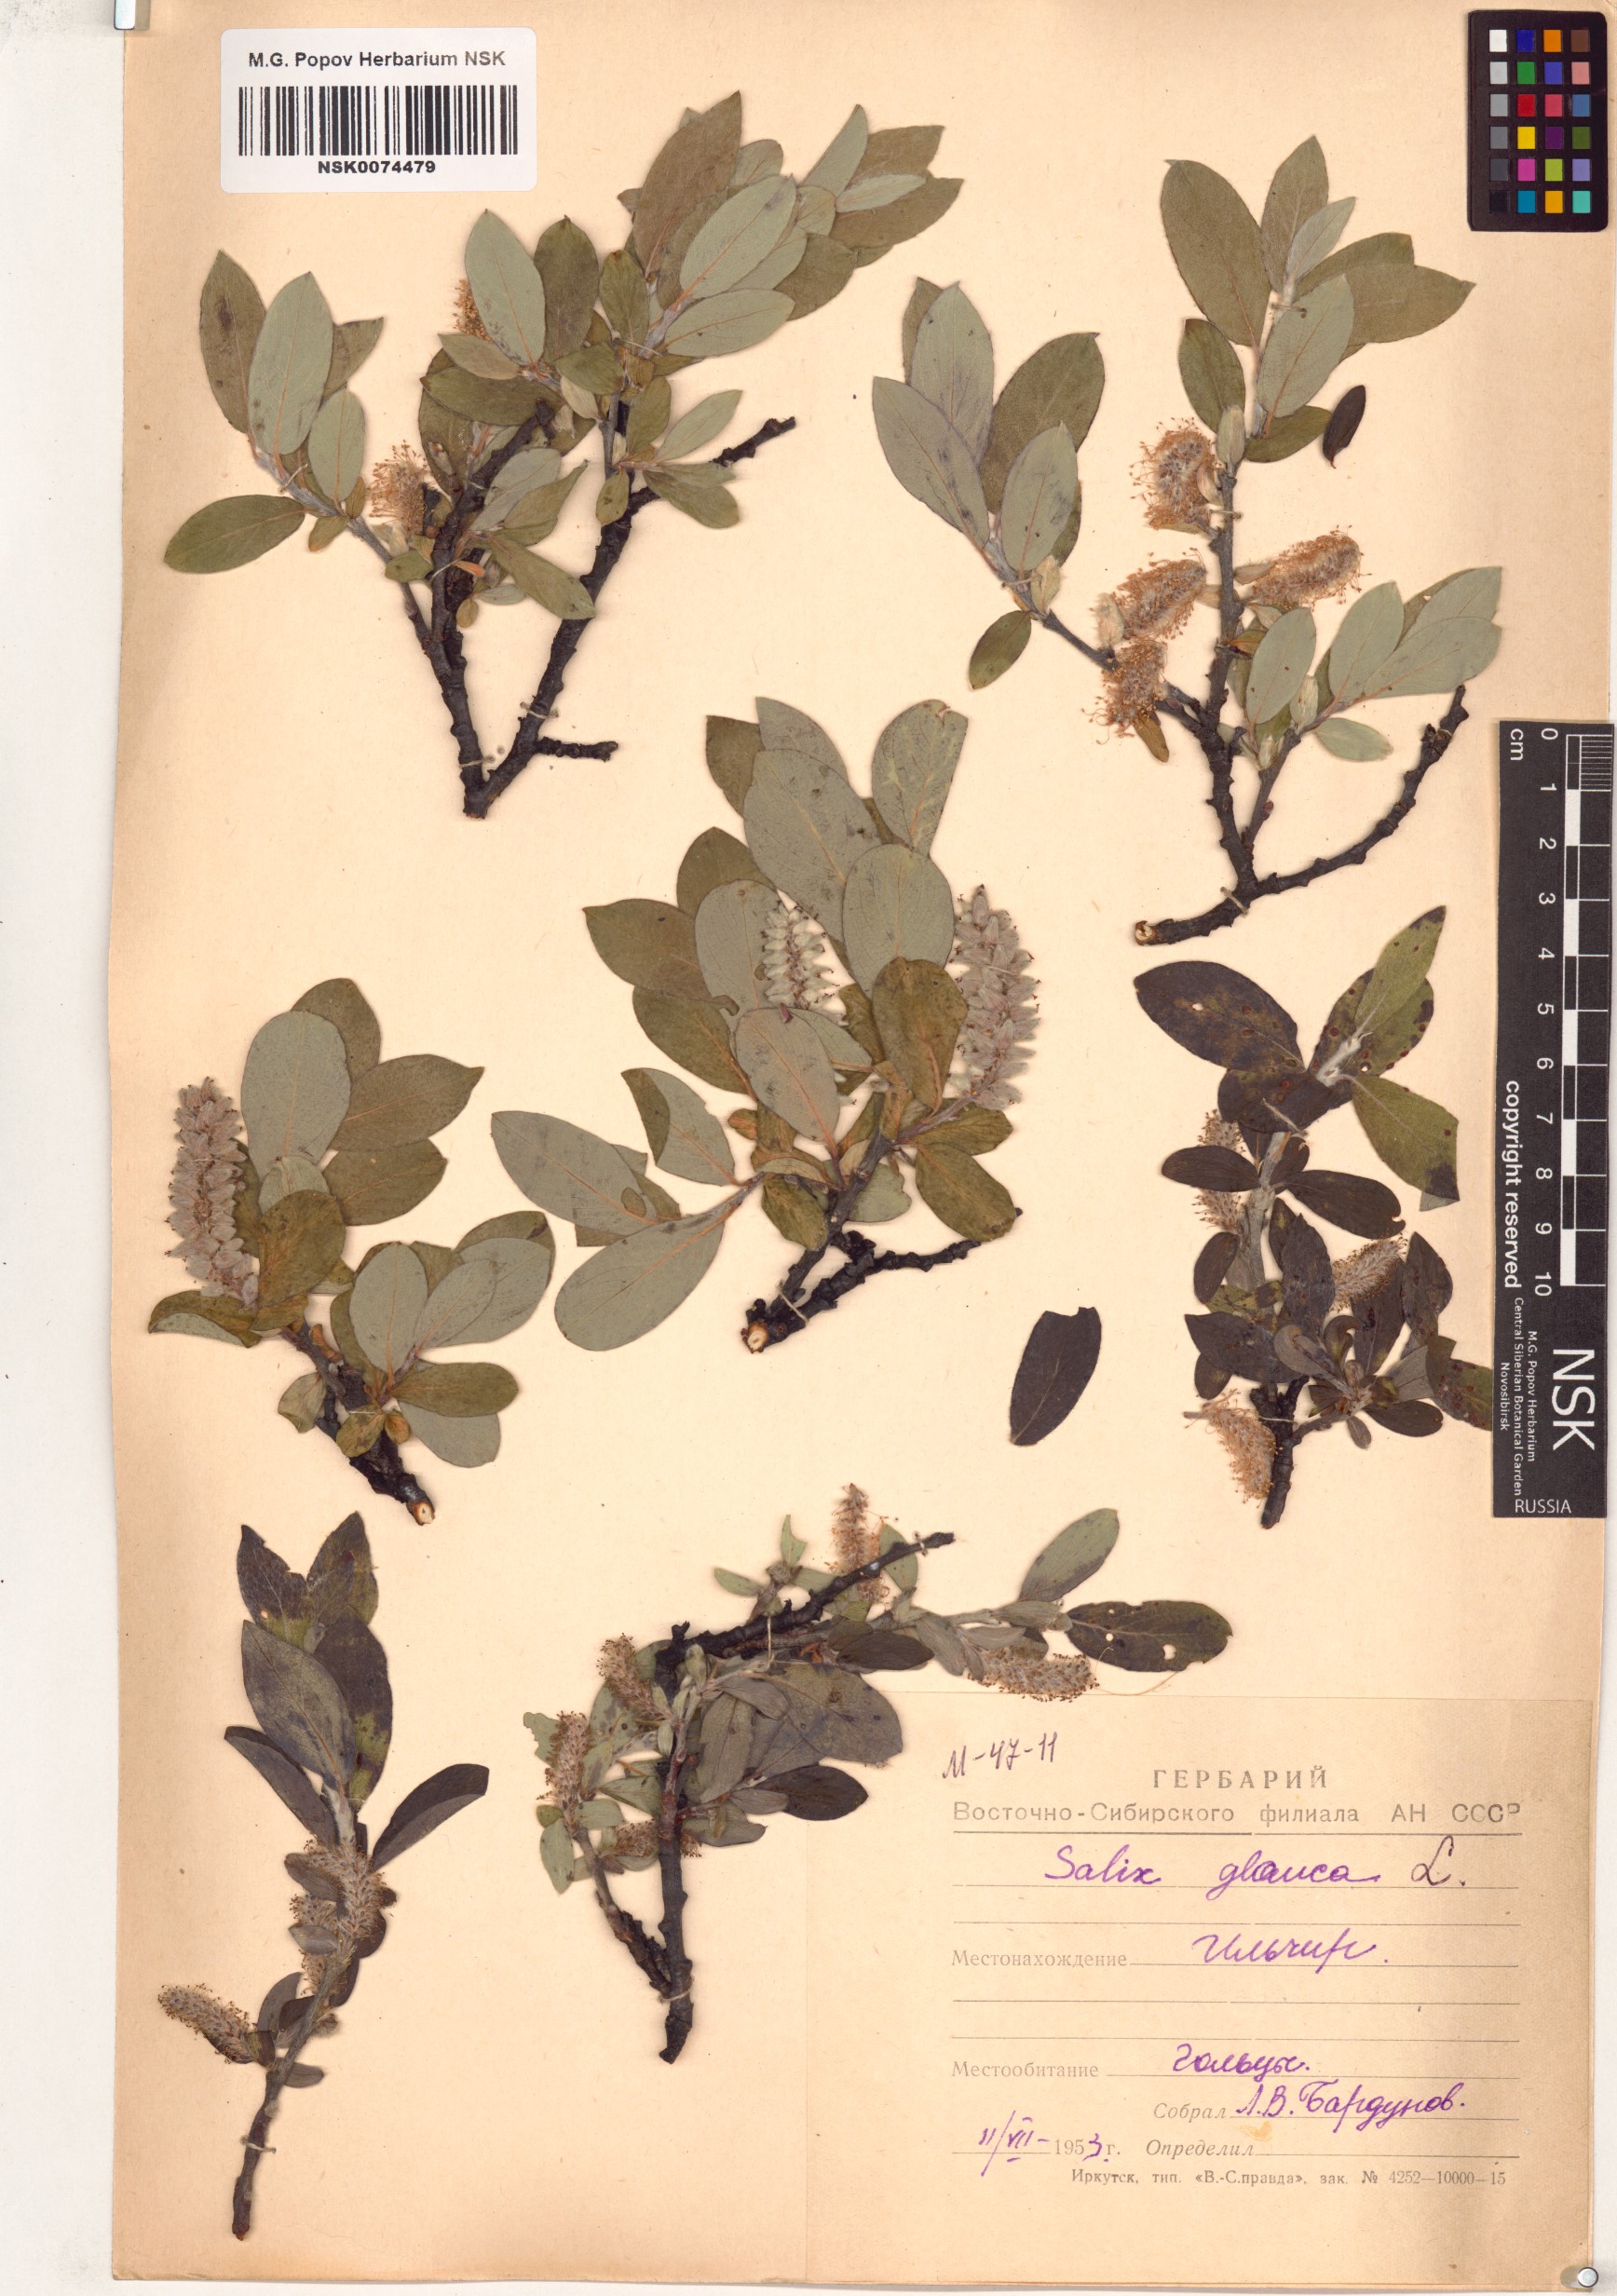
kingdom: Plantae
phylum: Tracheophyta
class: Magnoliopsida
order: Malpighiales
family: Salicaceae
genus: Salix
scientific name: Salix glauca
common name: Glaucous willow
